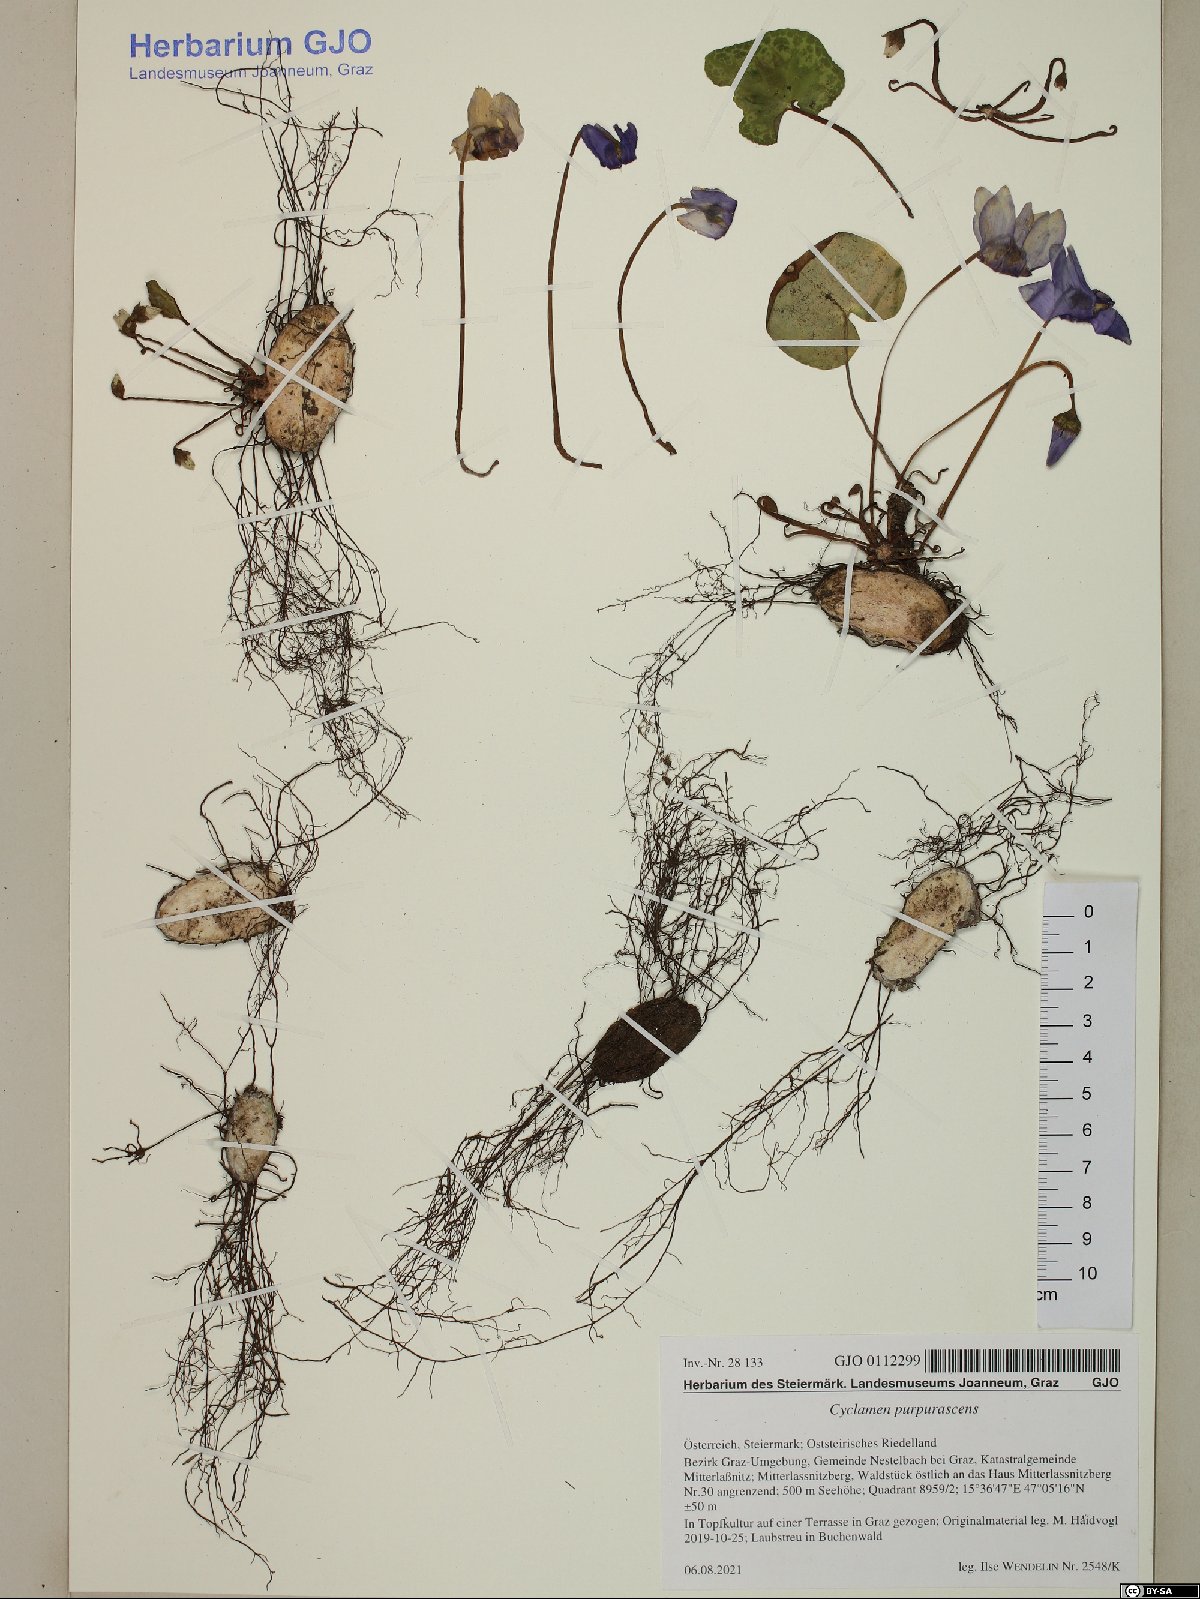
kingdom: Plantae
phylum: Tracheophyta
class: Magnoliopsida
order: Ericales
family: Primulaceae
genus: Cyclamen
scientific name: Cyclamen purpurascens
